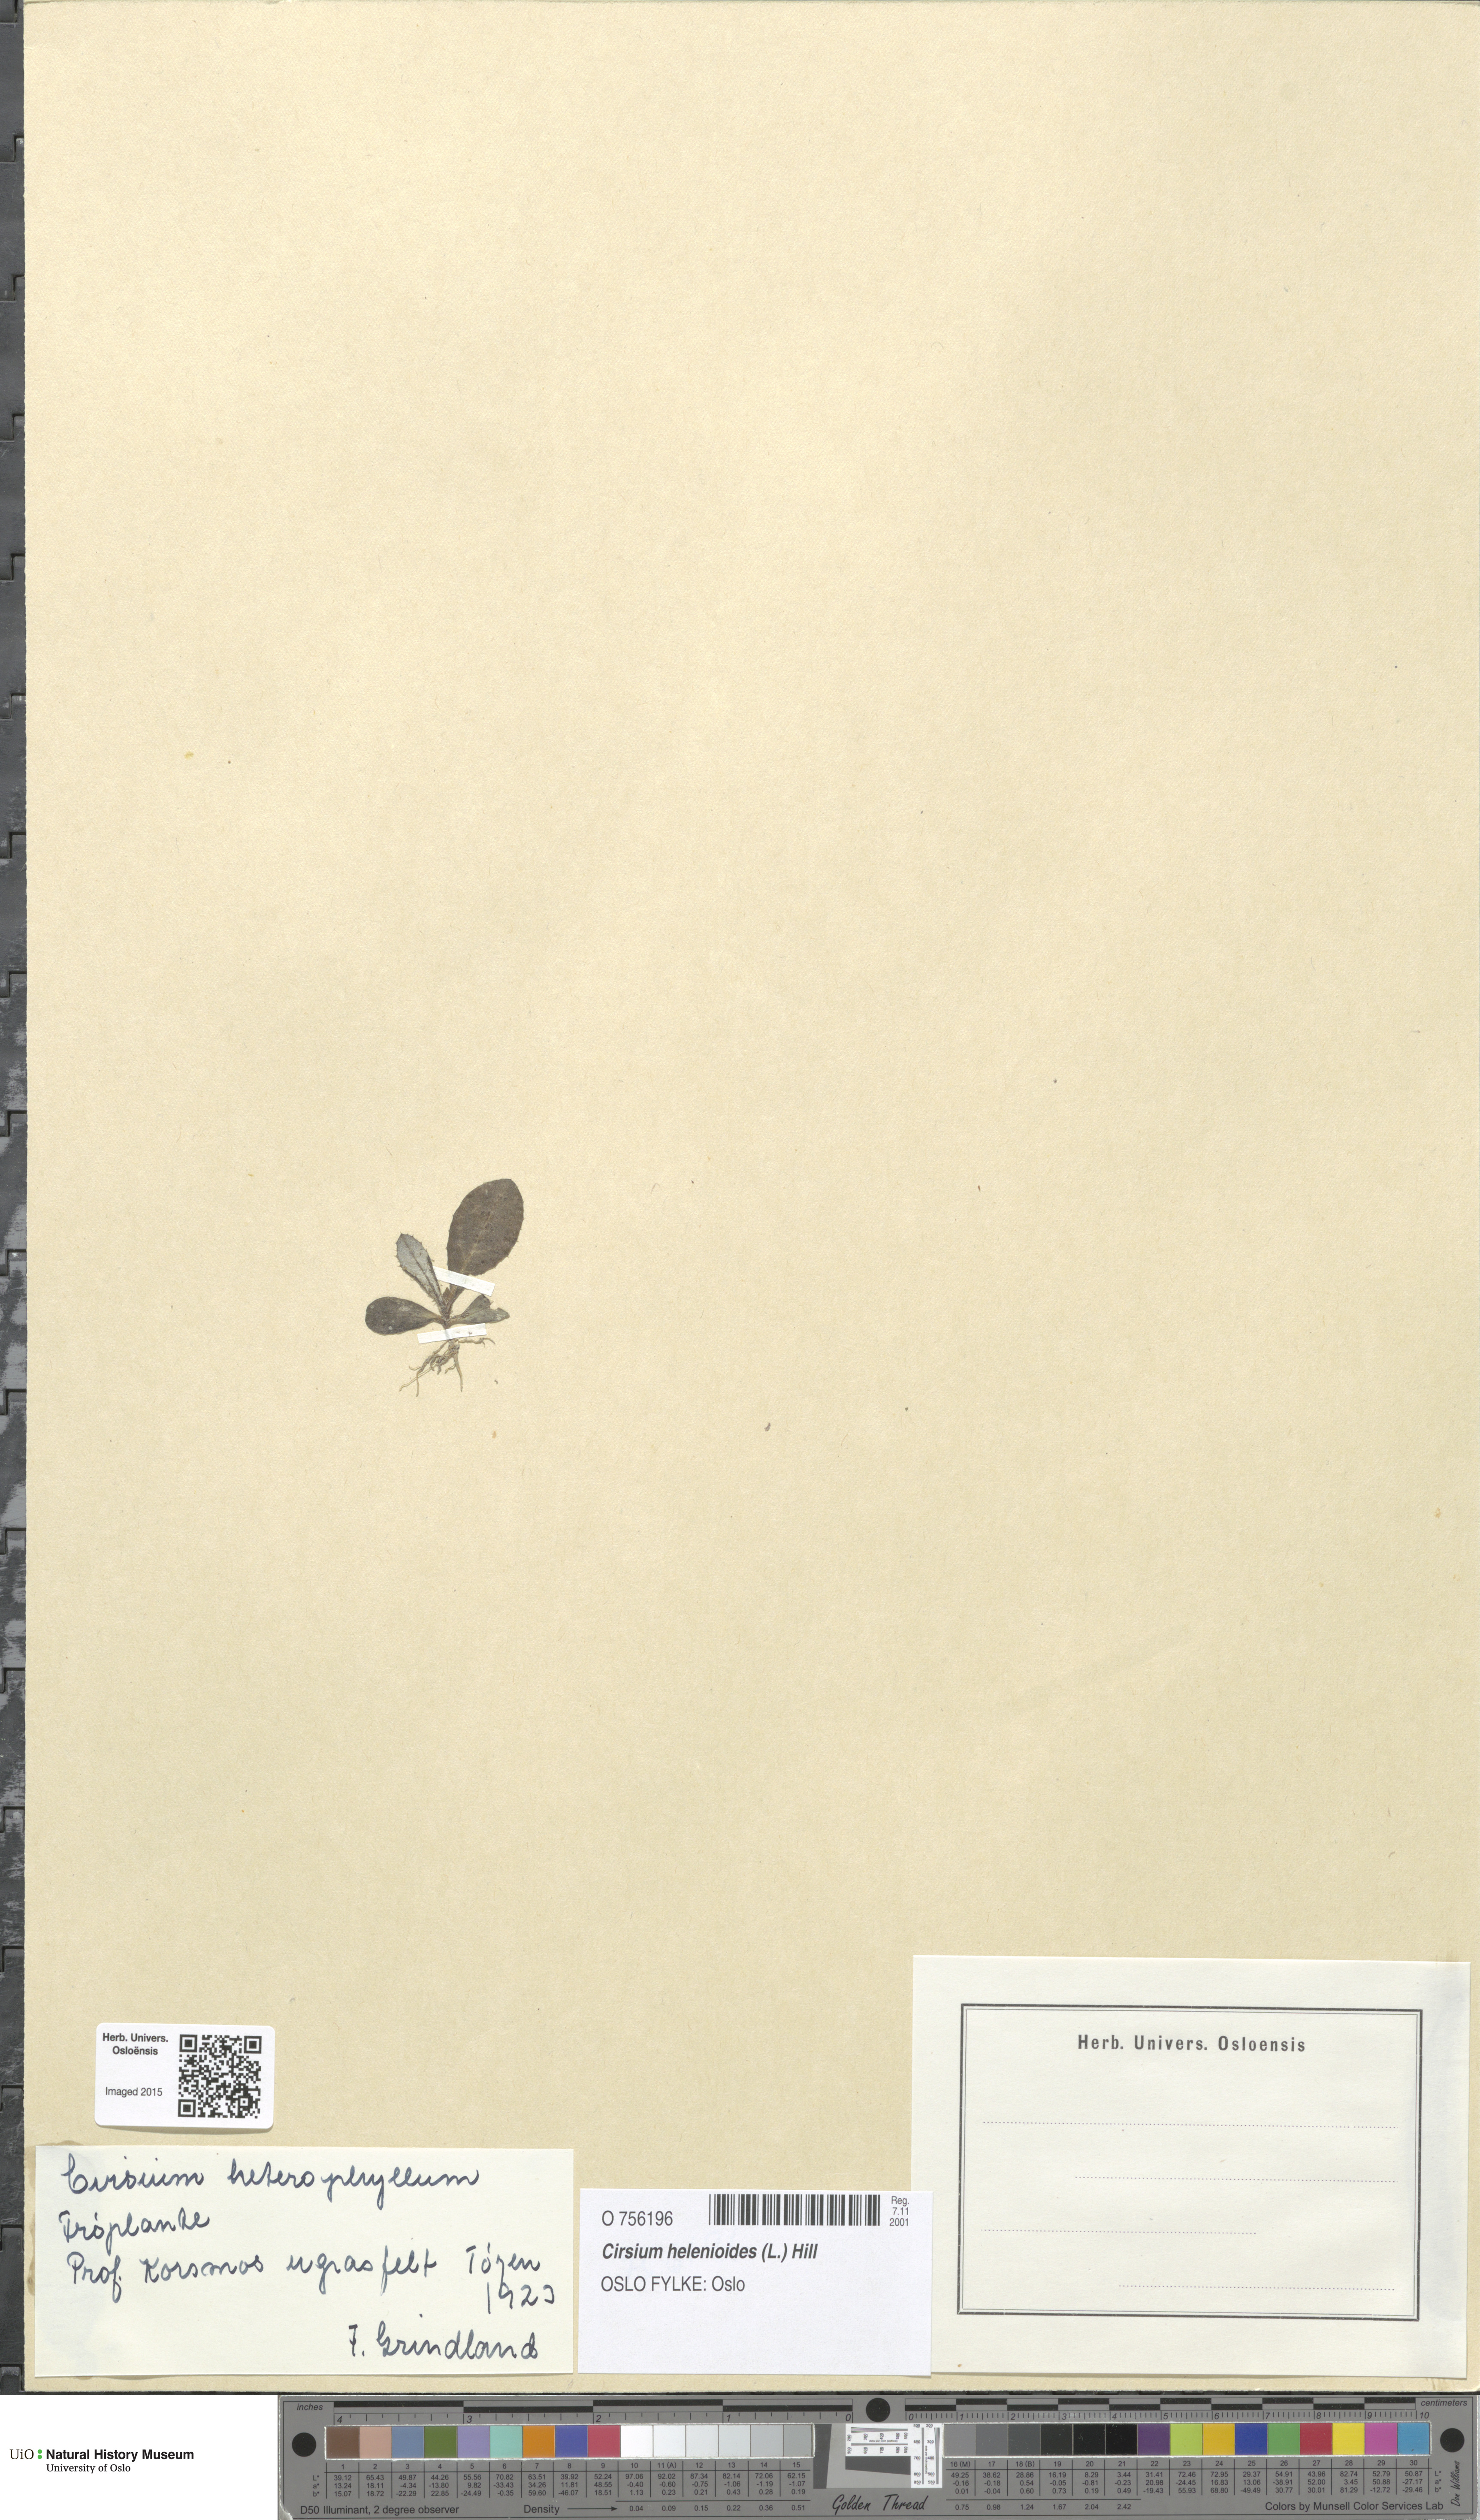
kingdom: Plantae
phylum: Tracheophyta
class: Magnoliopsida
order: Asterales
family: Asteraceae
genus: Cirsium
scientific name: Cirsium heterophyllum
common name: Melancholy thistle
